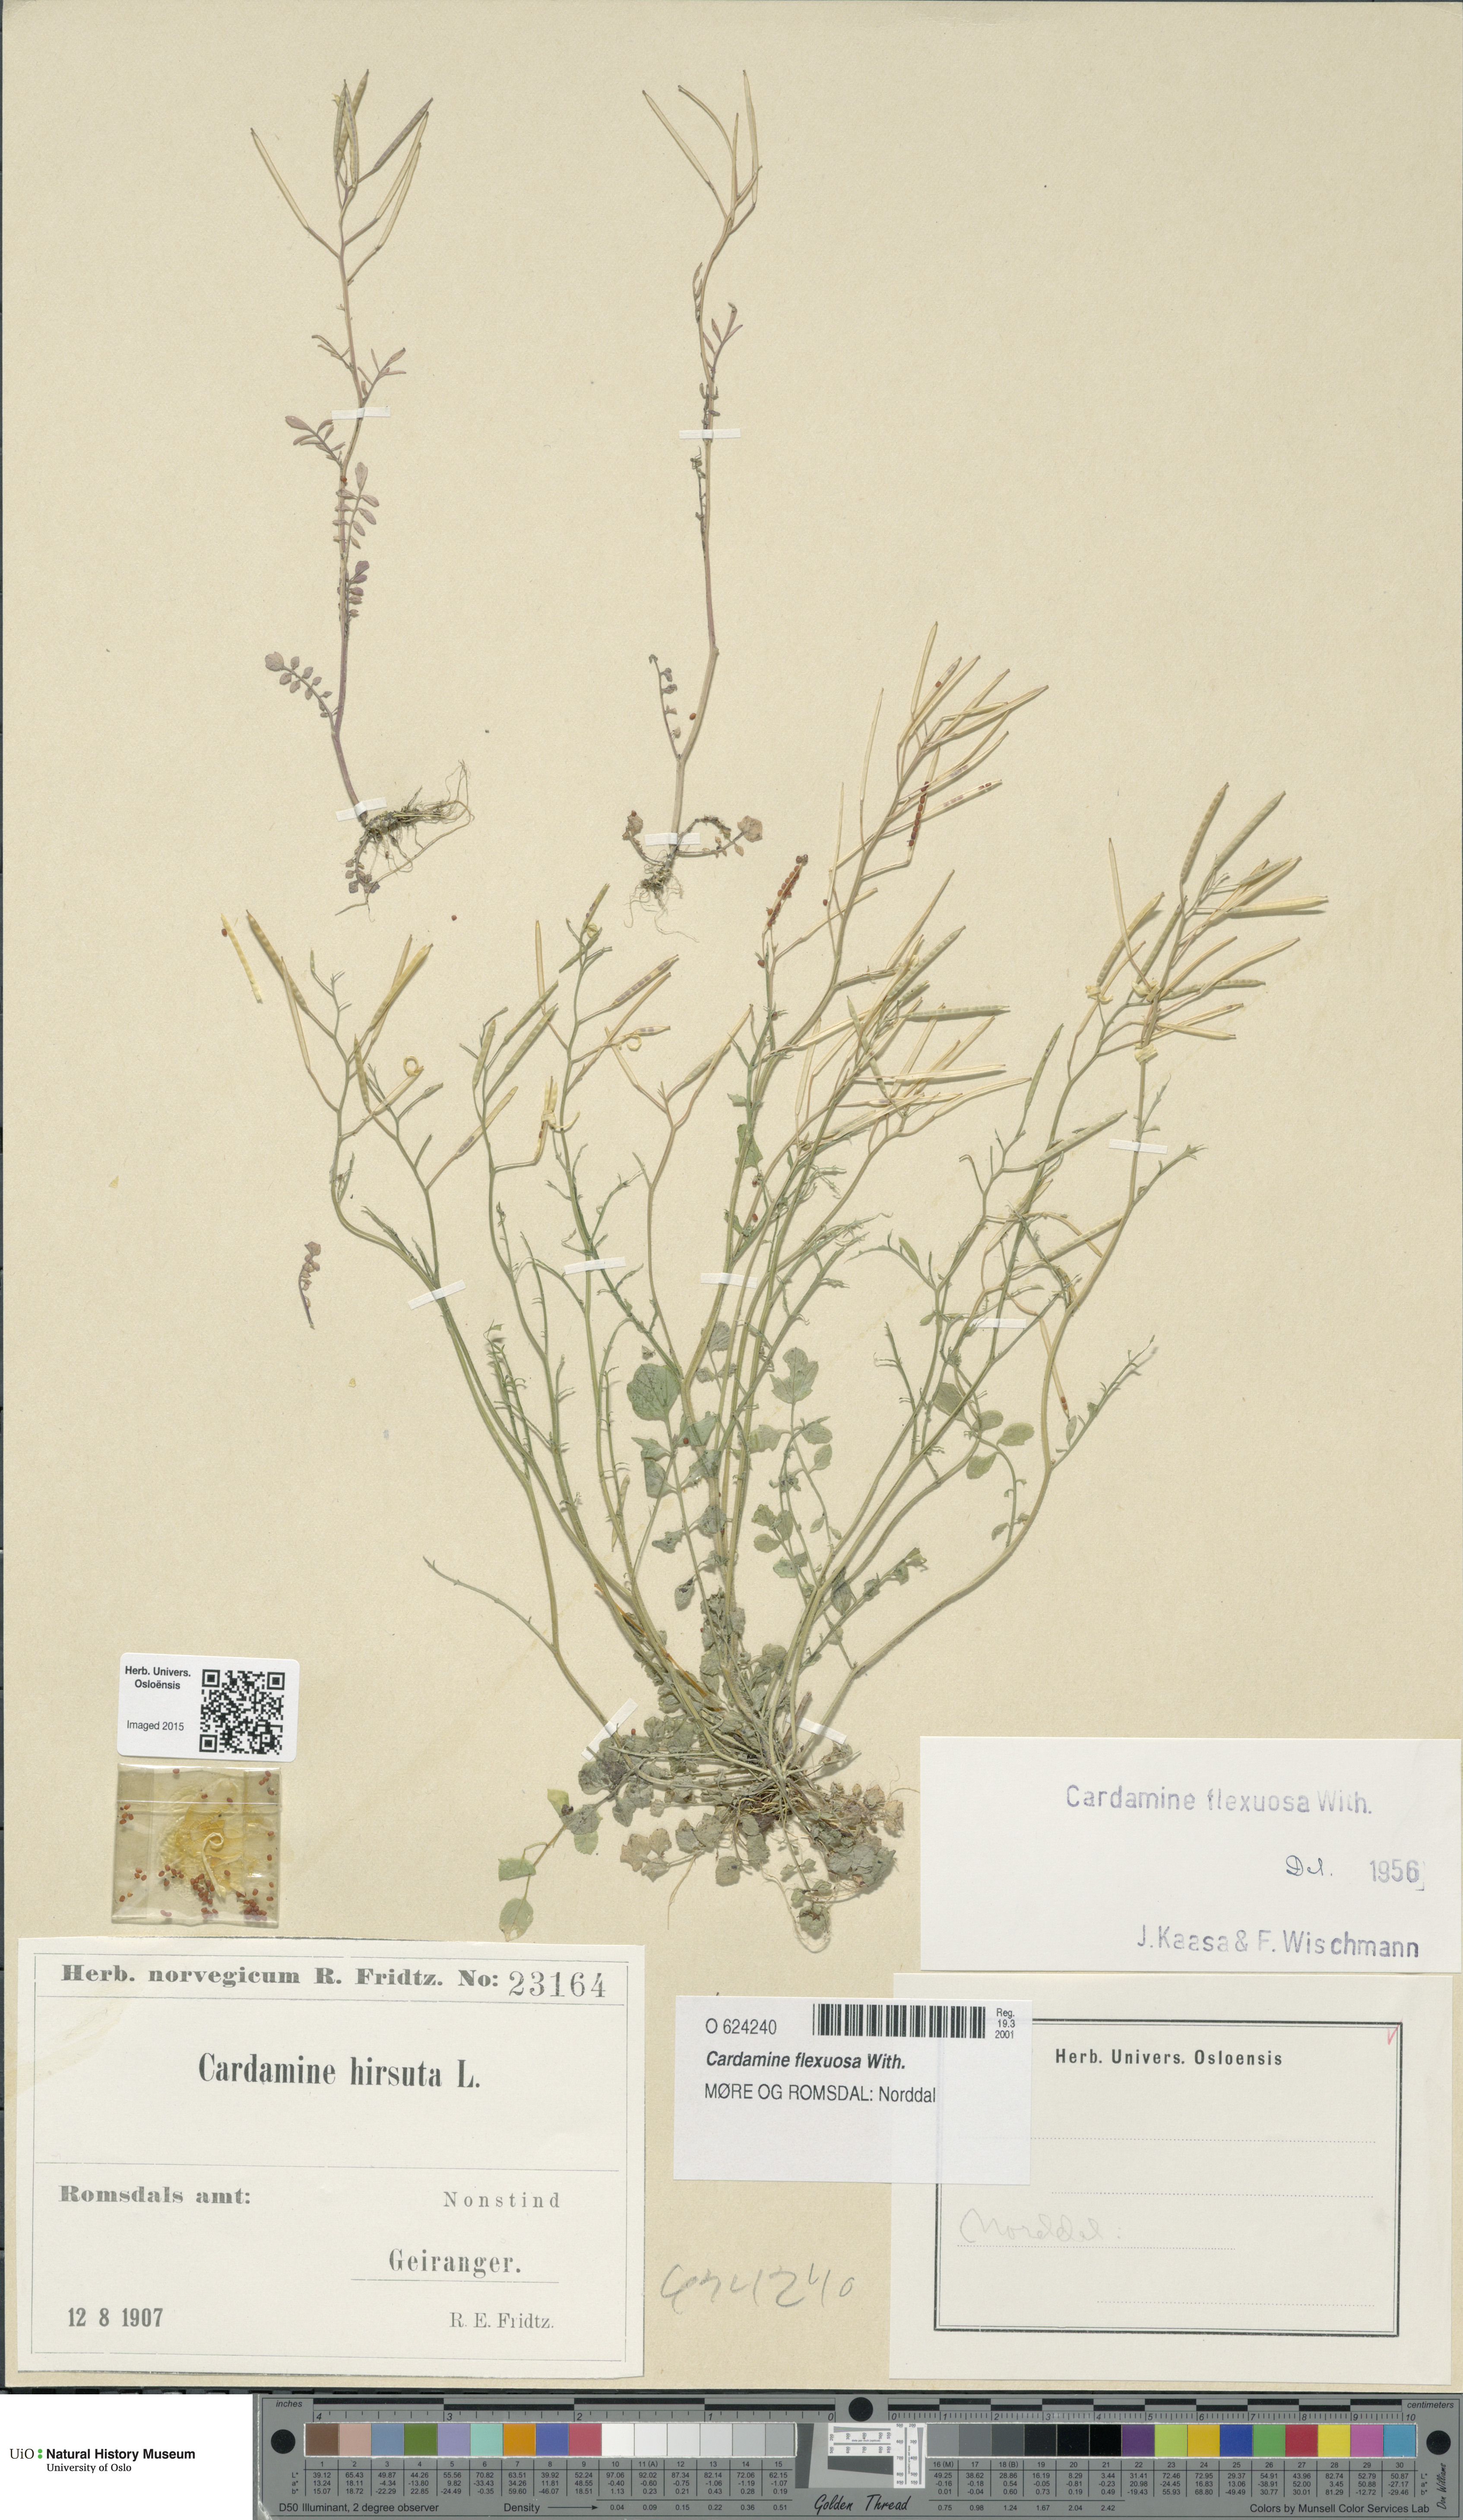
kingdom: Plantae
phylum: Tracheophyta
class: Magnoliopsida
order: Brassicales
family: Brassicaceae
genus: Cardamine
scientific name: Cardamine flexuosa
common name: Woodland bittercress
